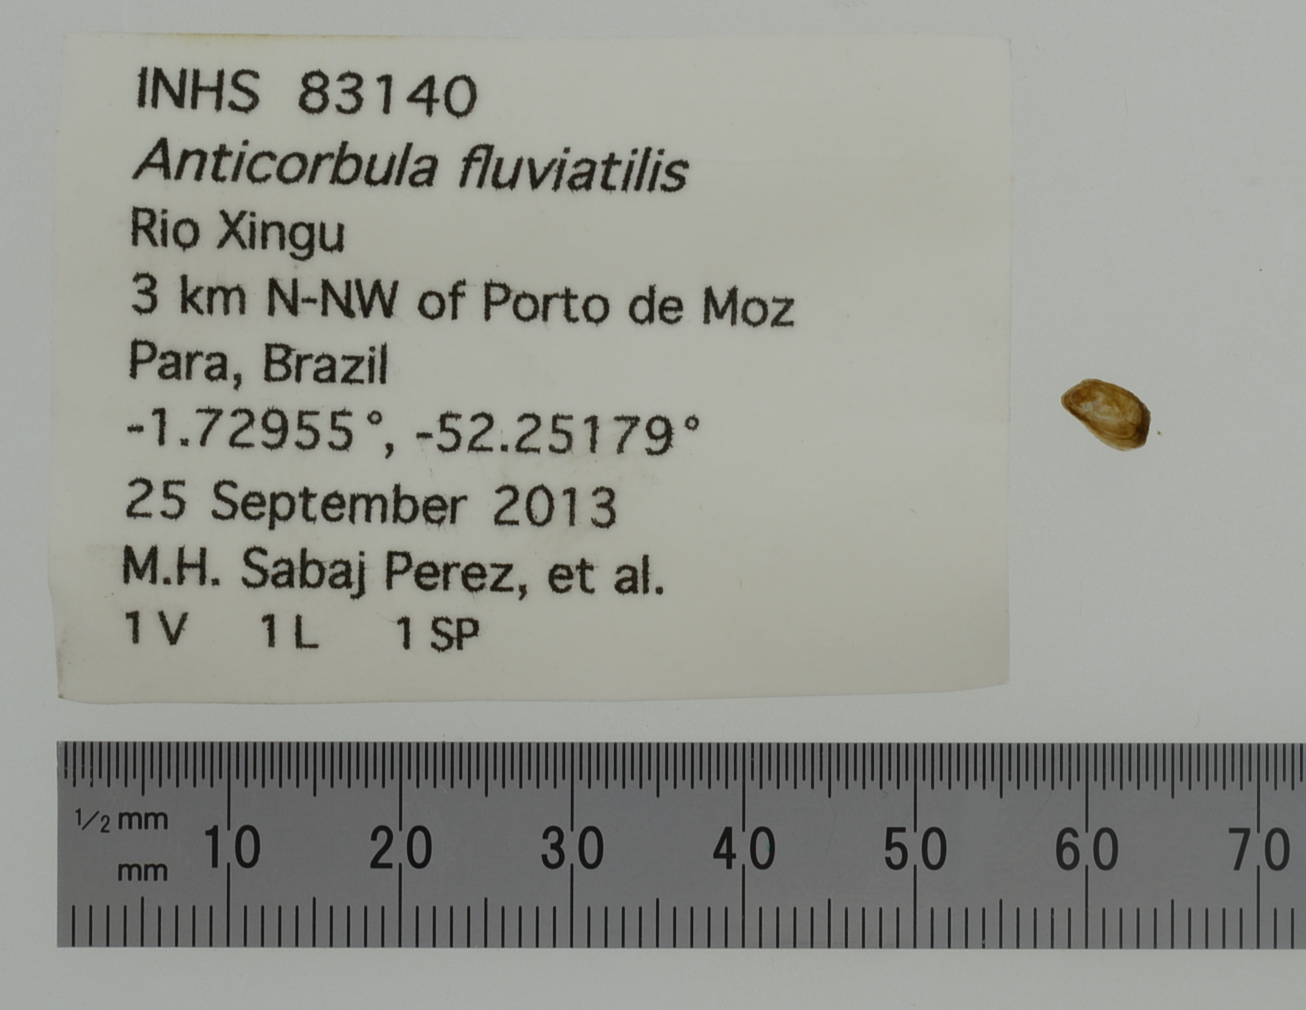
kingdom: Animalia
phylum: Mollusca
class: Bivalvia
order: Myida
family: Corbulidae
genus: Anticorbula
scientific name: Anticorbula fluviatilis
